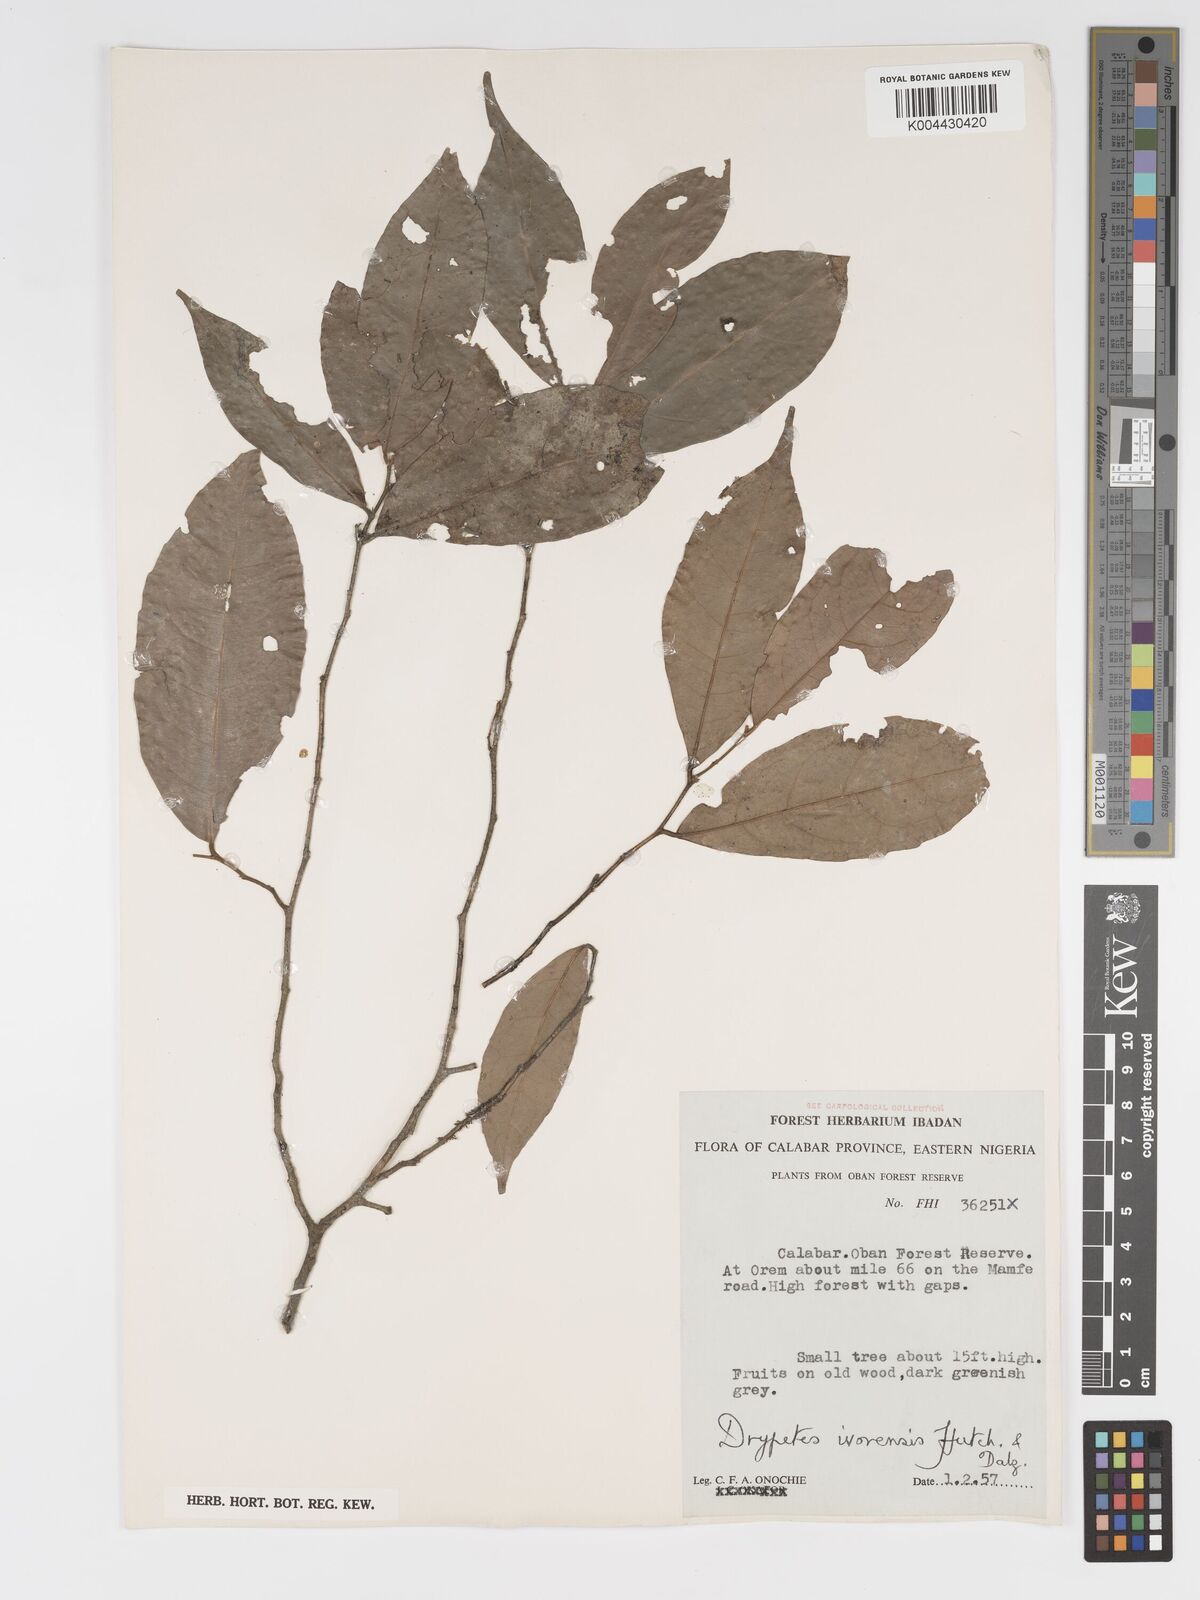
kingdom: Plantae
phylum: Tracheophyta
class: Magnoliopsida
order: Malpighiales
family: Putranjivaceae
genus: Drypetes
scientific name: Drypetes ivorensis
